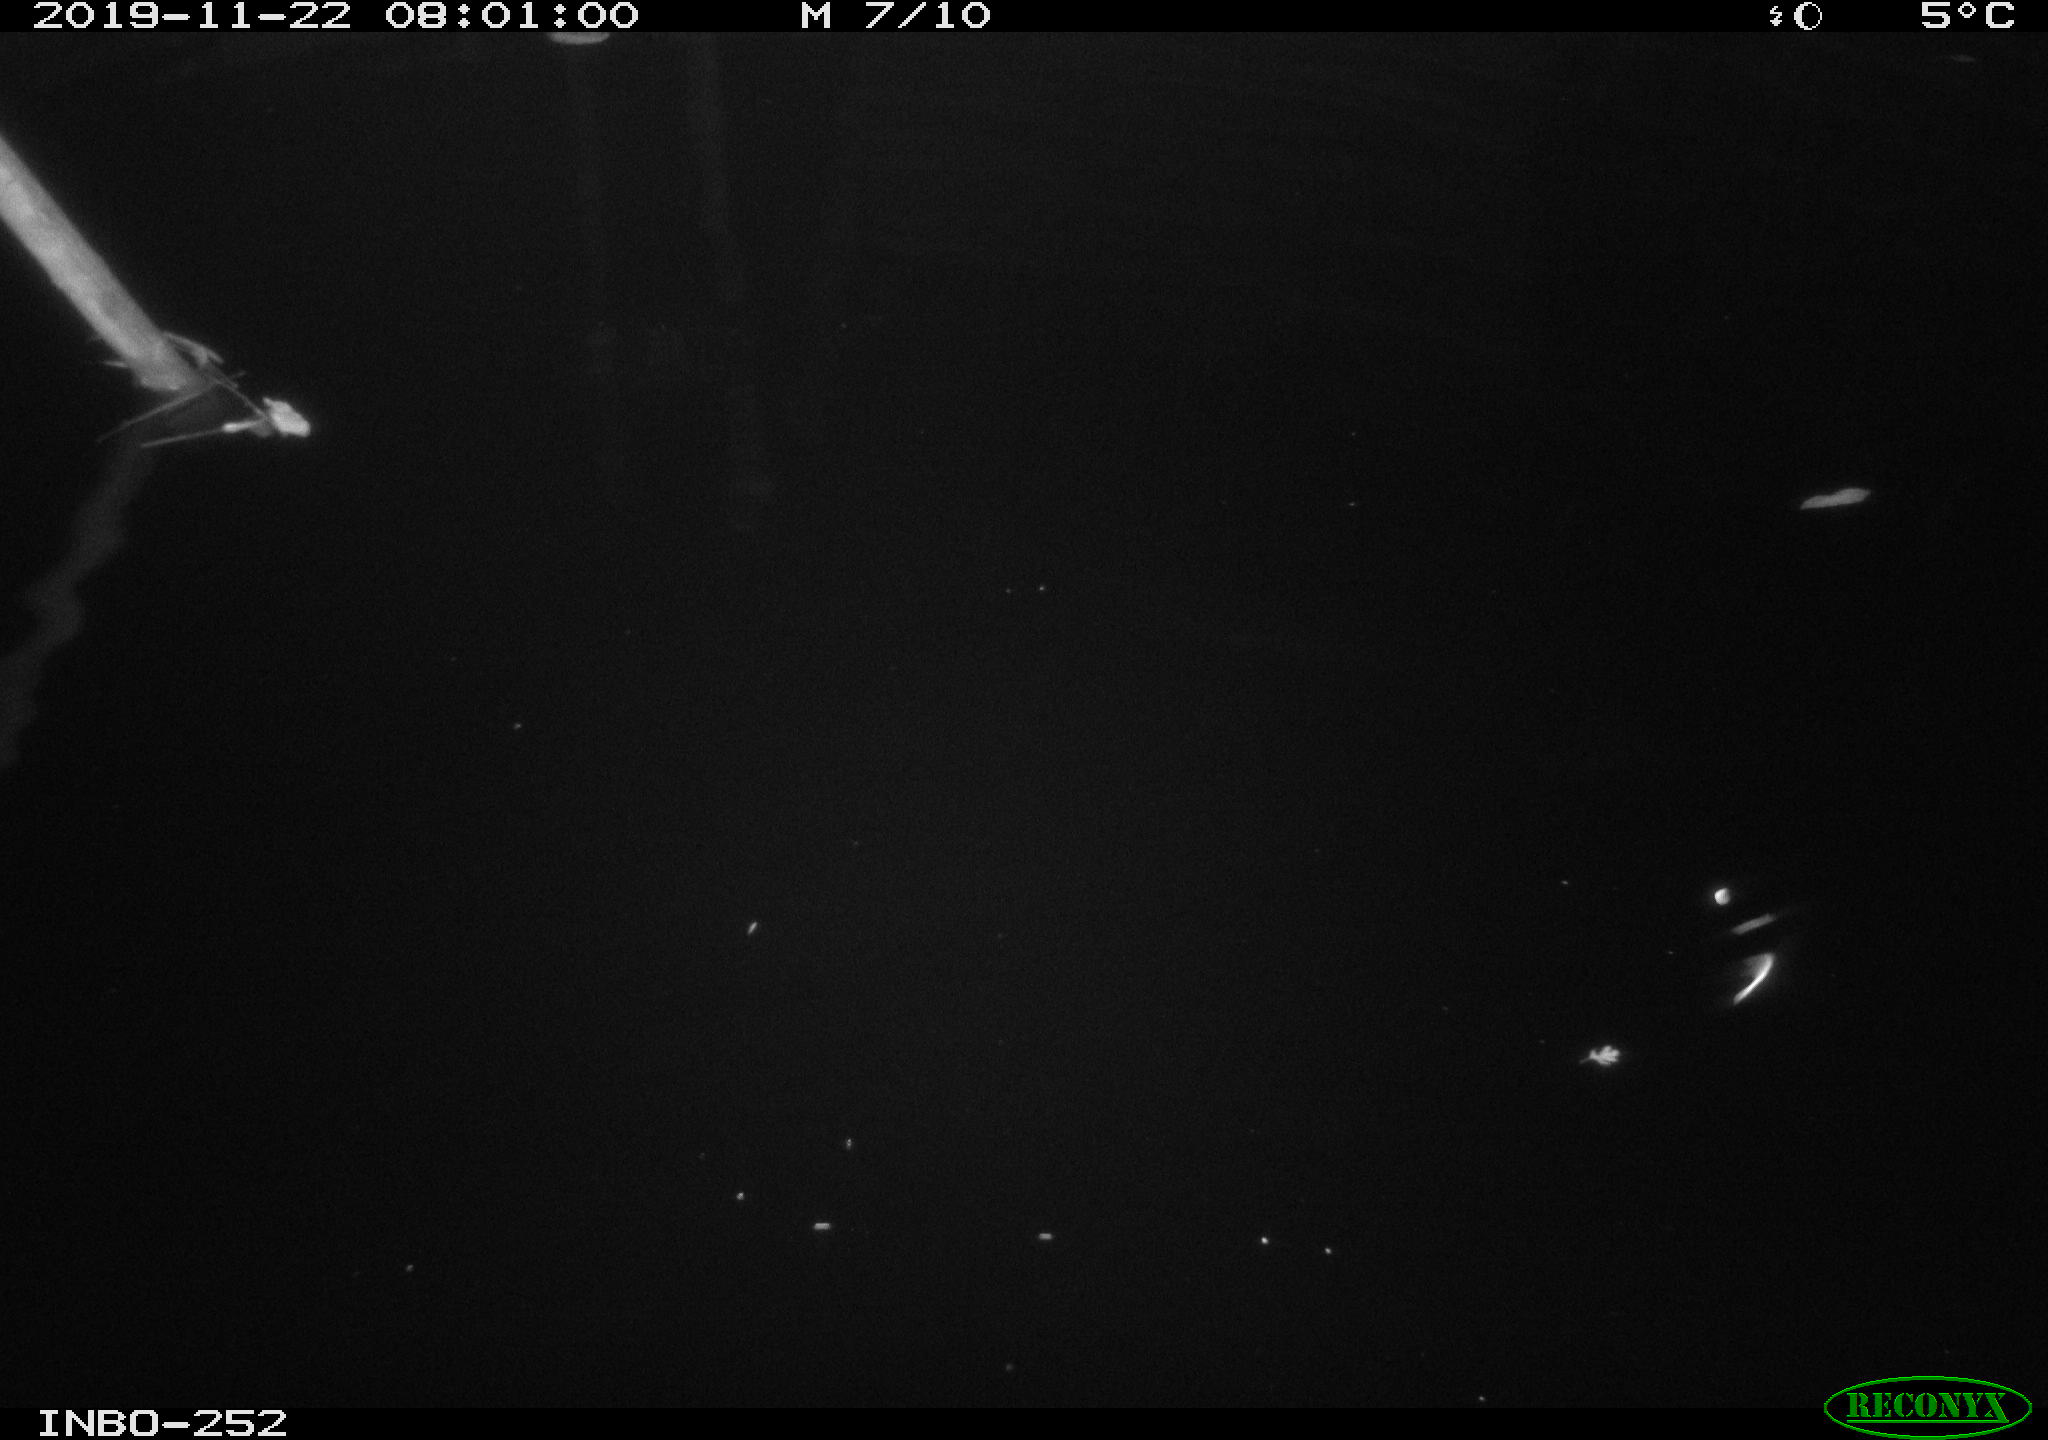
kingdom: Animalia
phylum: Chordata
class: Mammalia
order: Rodentia
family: Muridae
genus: Rattus
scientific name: Rattus norvegicus
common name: Brown rat
